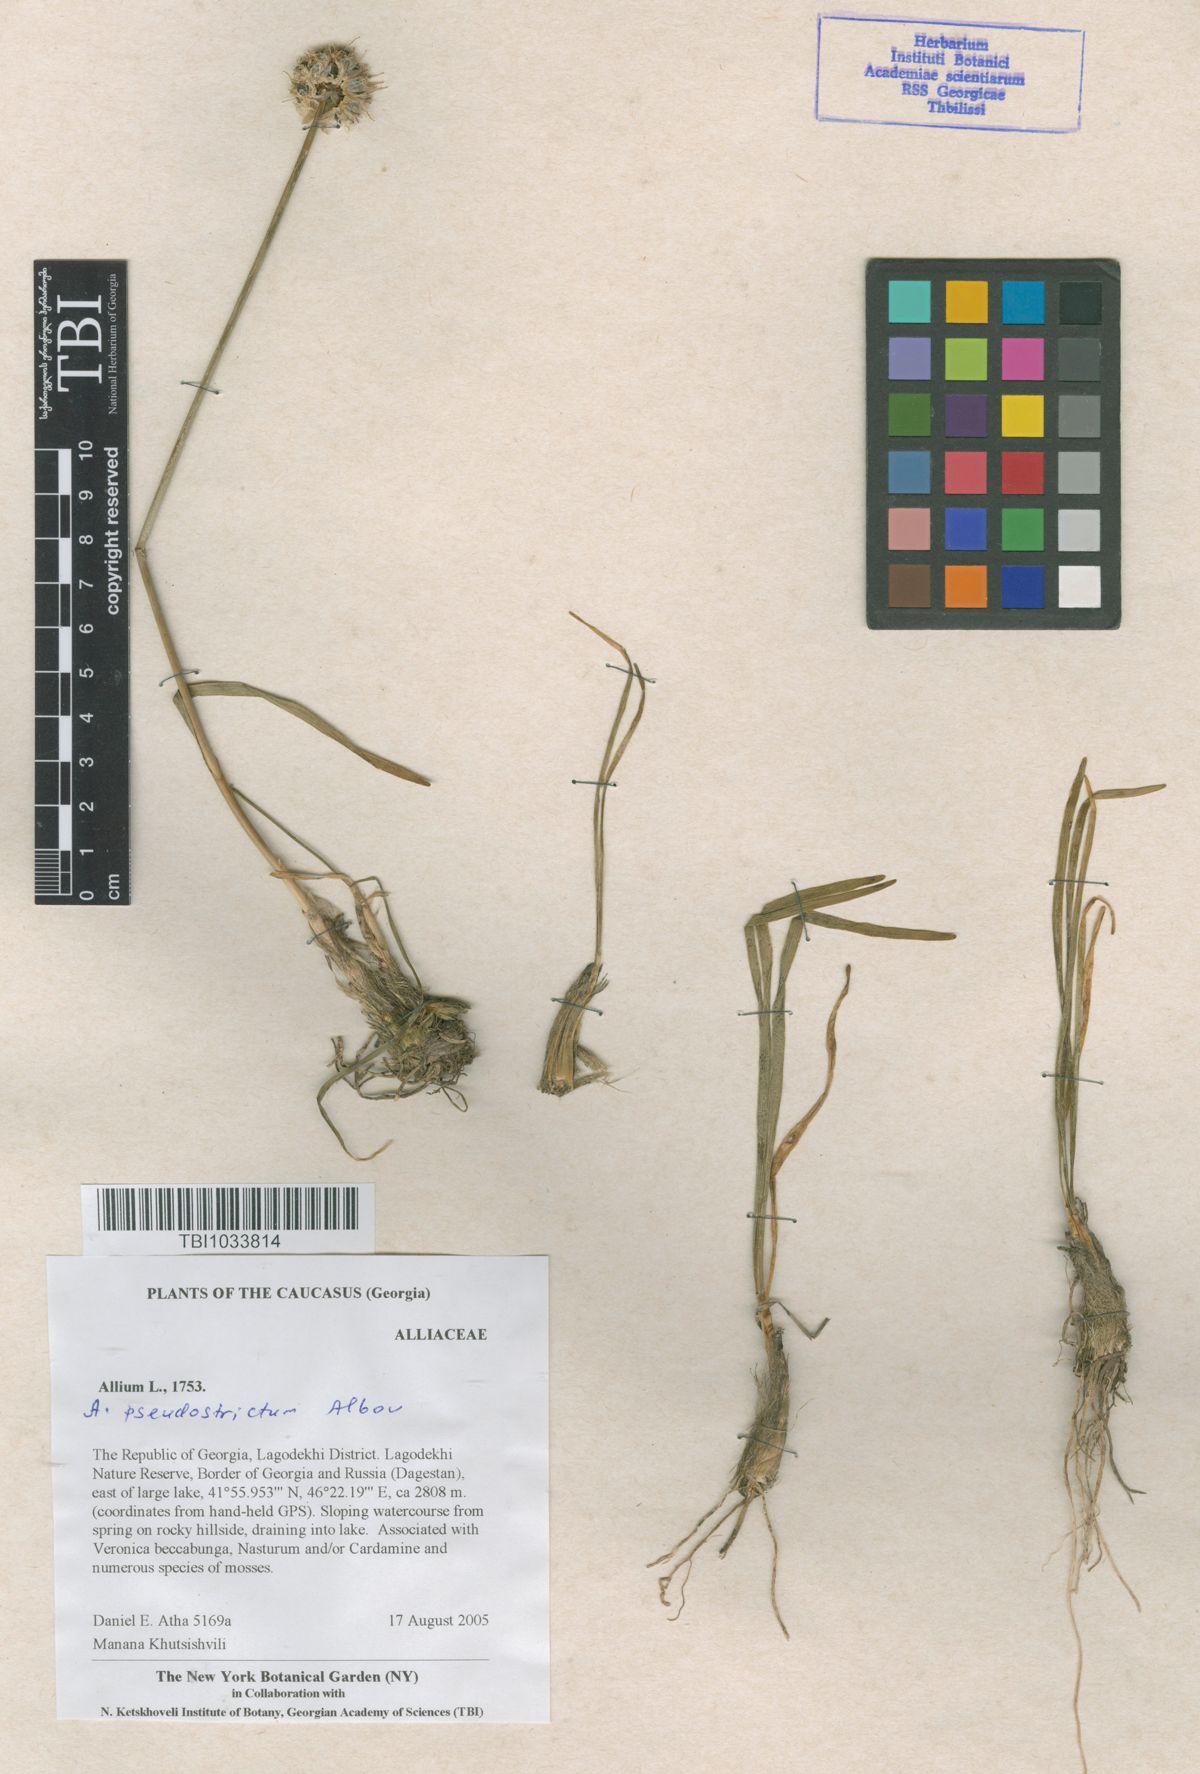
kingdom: Plantae
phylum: Tracheophyta
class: Liliopsida
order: Asparagales
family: Amaryllidaceae
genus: Allium
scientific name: Allium pseudostrictum
